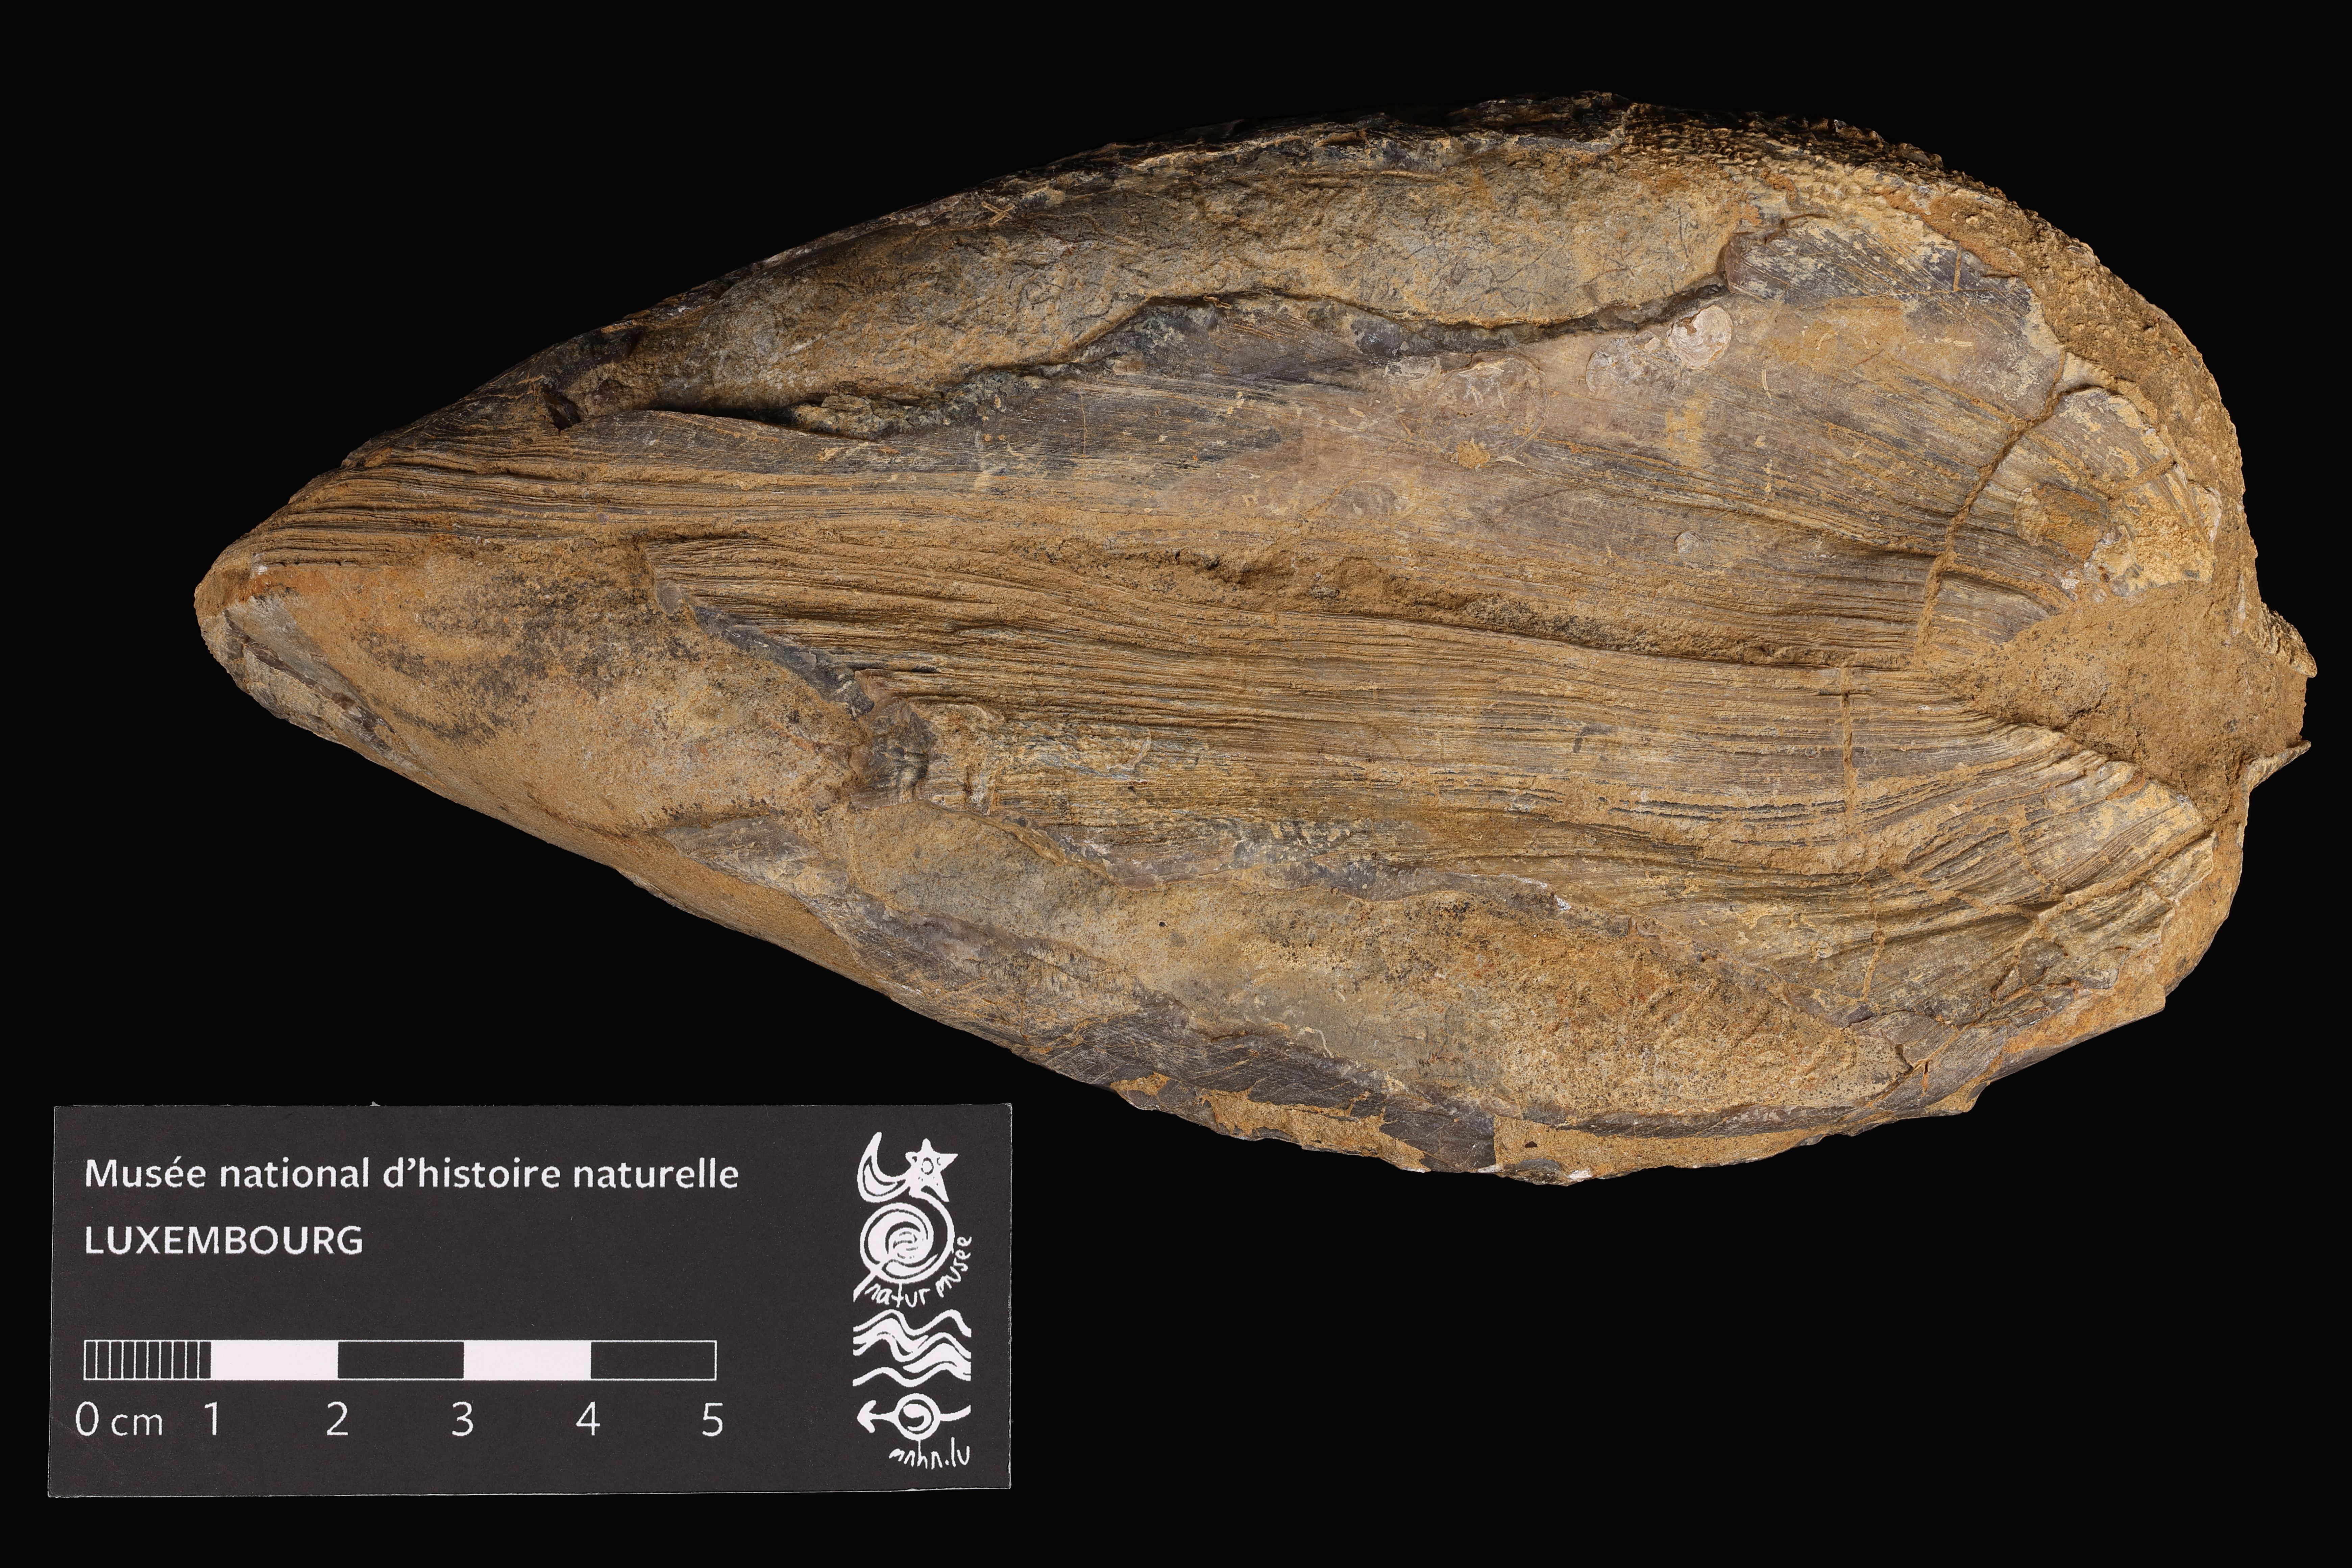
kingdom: Animalia
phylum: Mollusca
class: Bivalvia
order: Limida
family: Limidae
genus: Plagiostoma
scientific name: Plagiostoma gigantea
